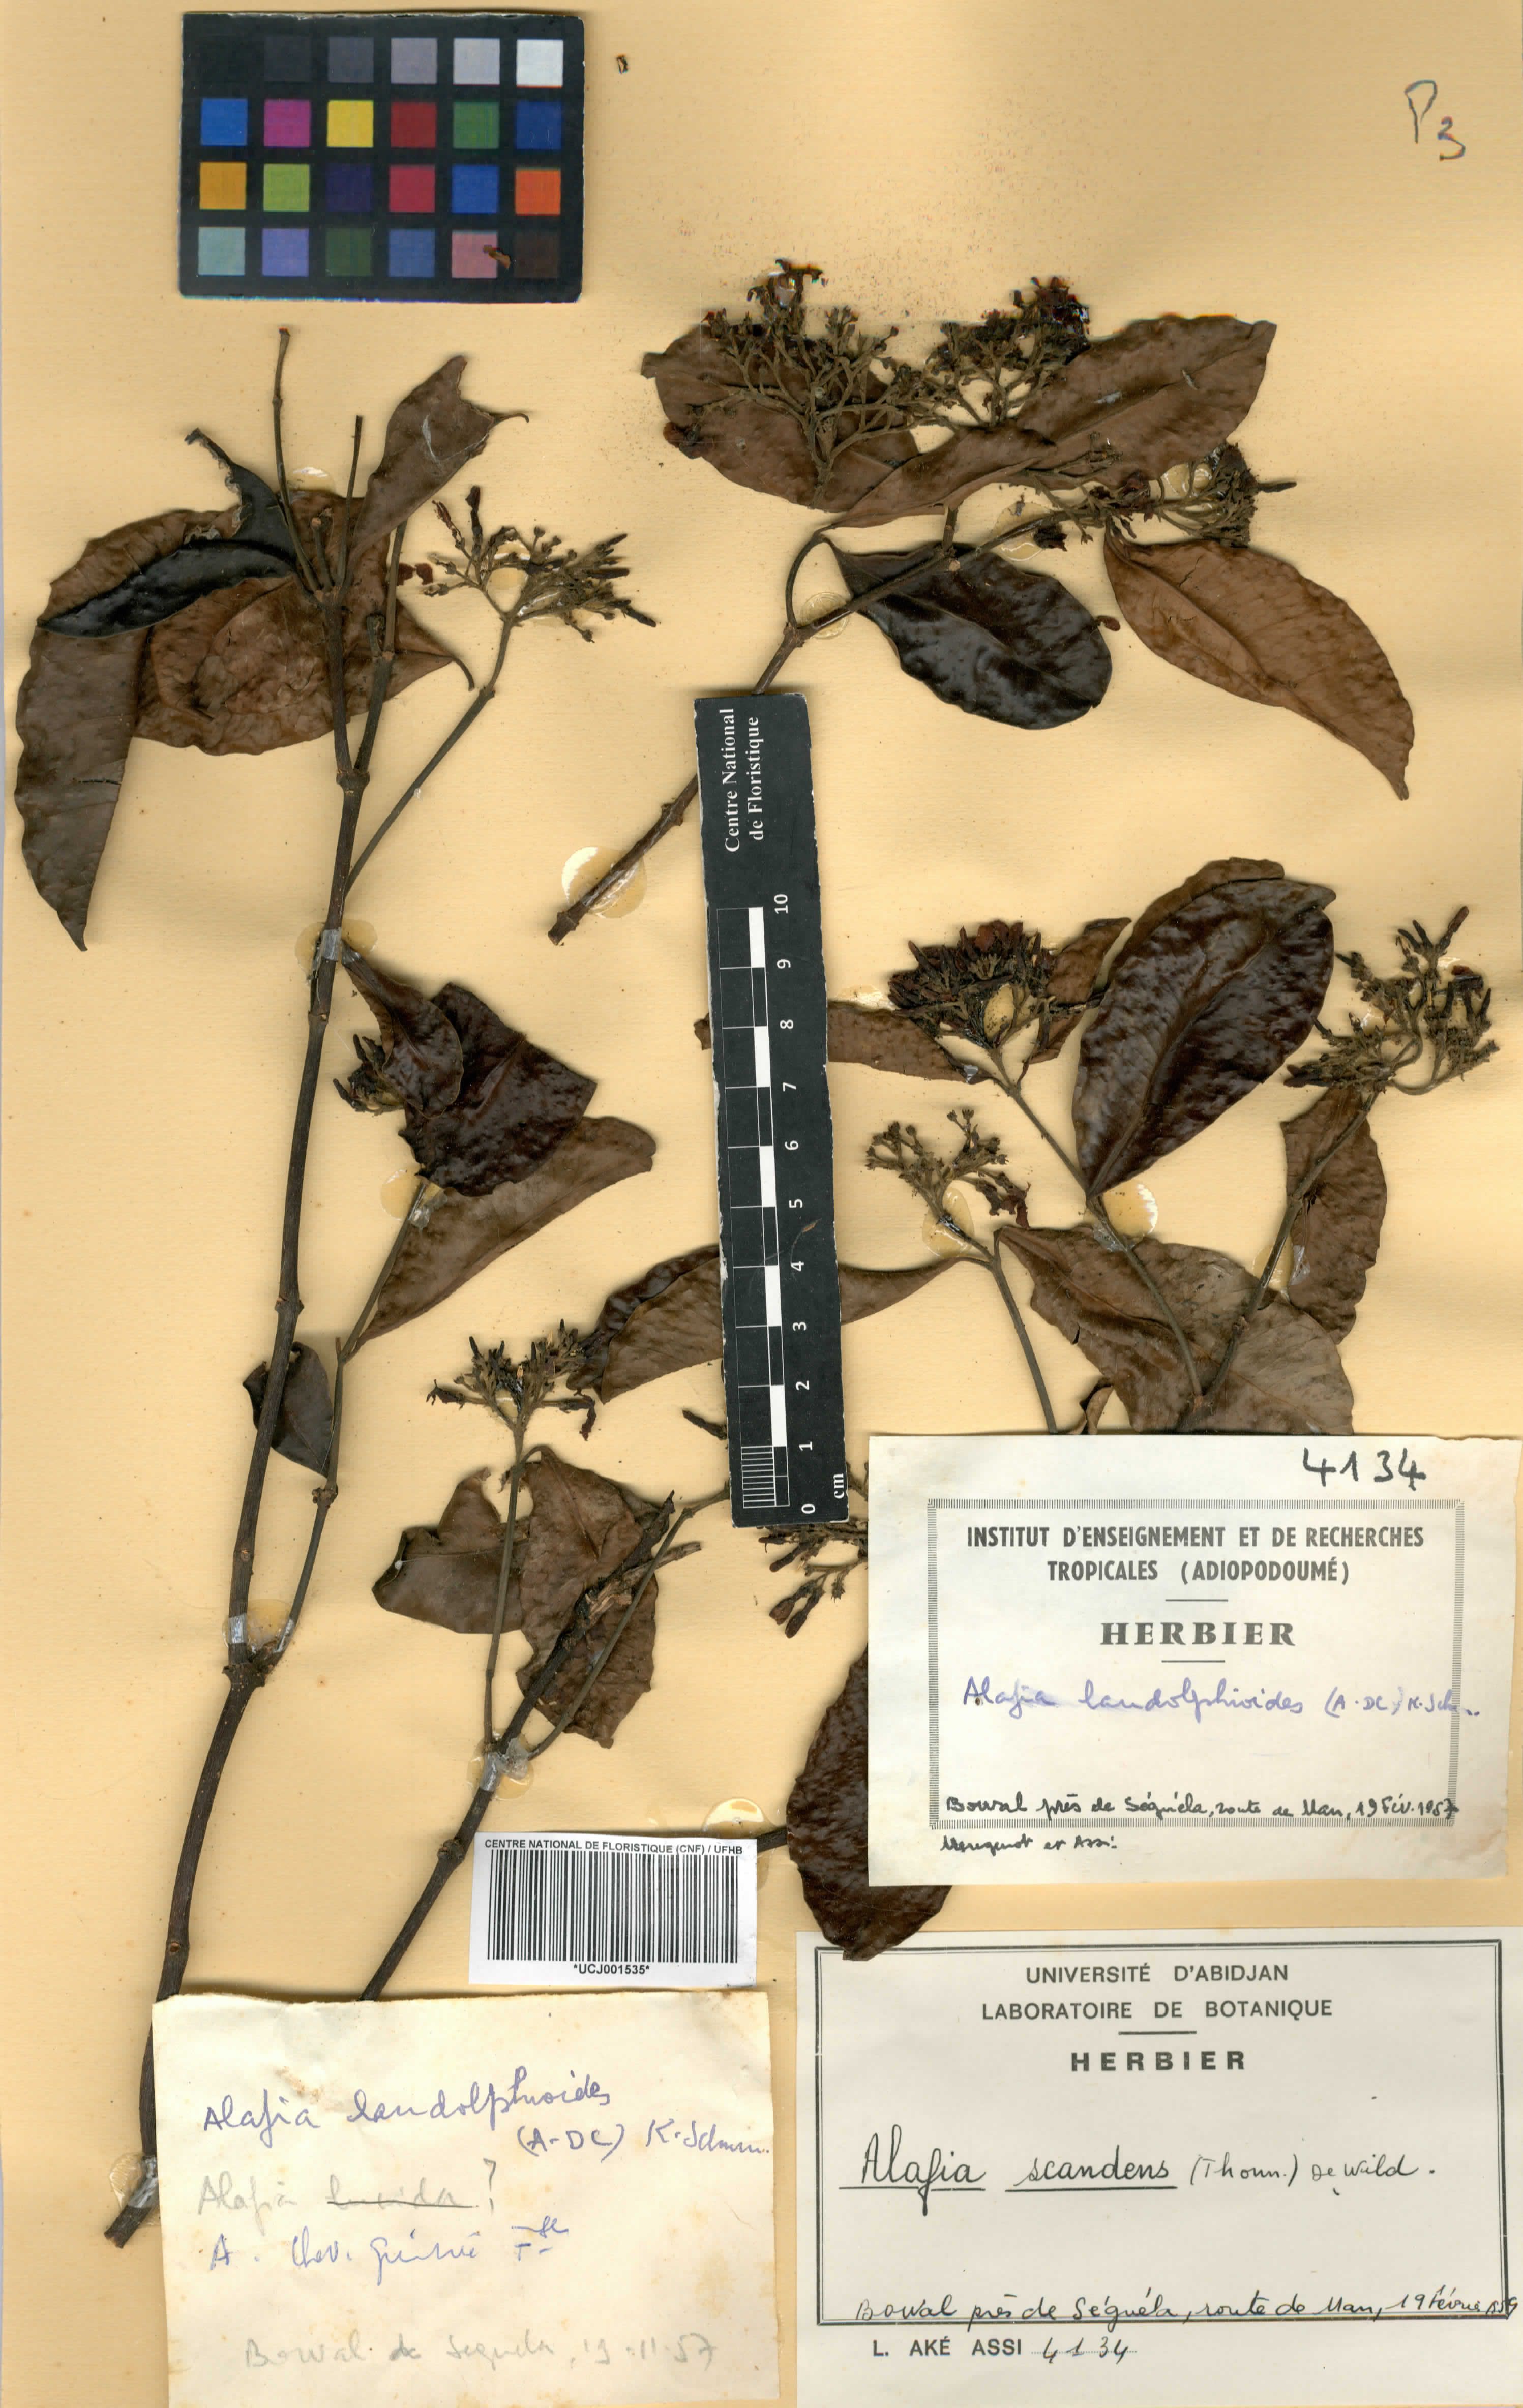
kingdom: Plantae
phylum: Tracheophyta
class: Magnoliopsida
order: Gentianales
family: Apocynaceae
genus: Alafia
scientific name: Alafia scandens
